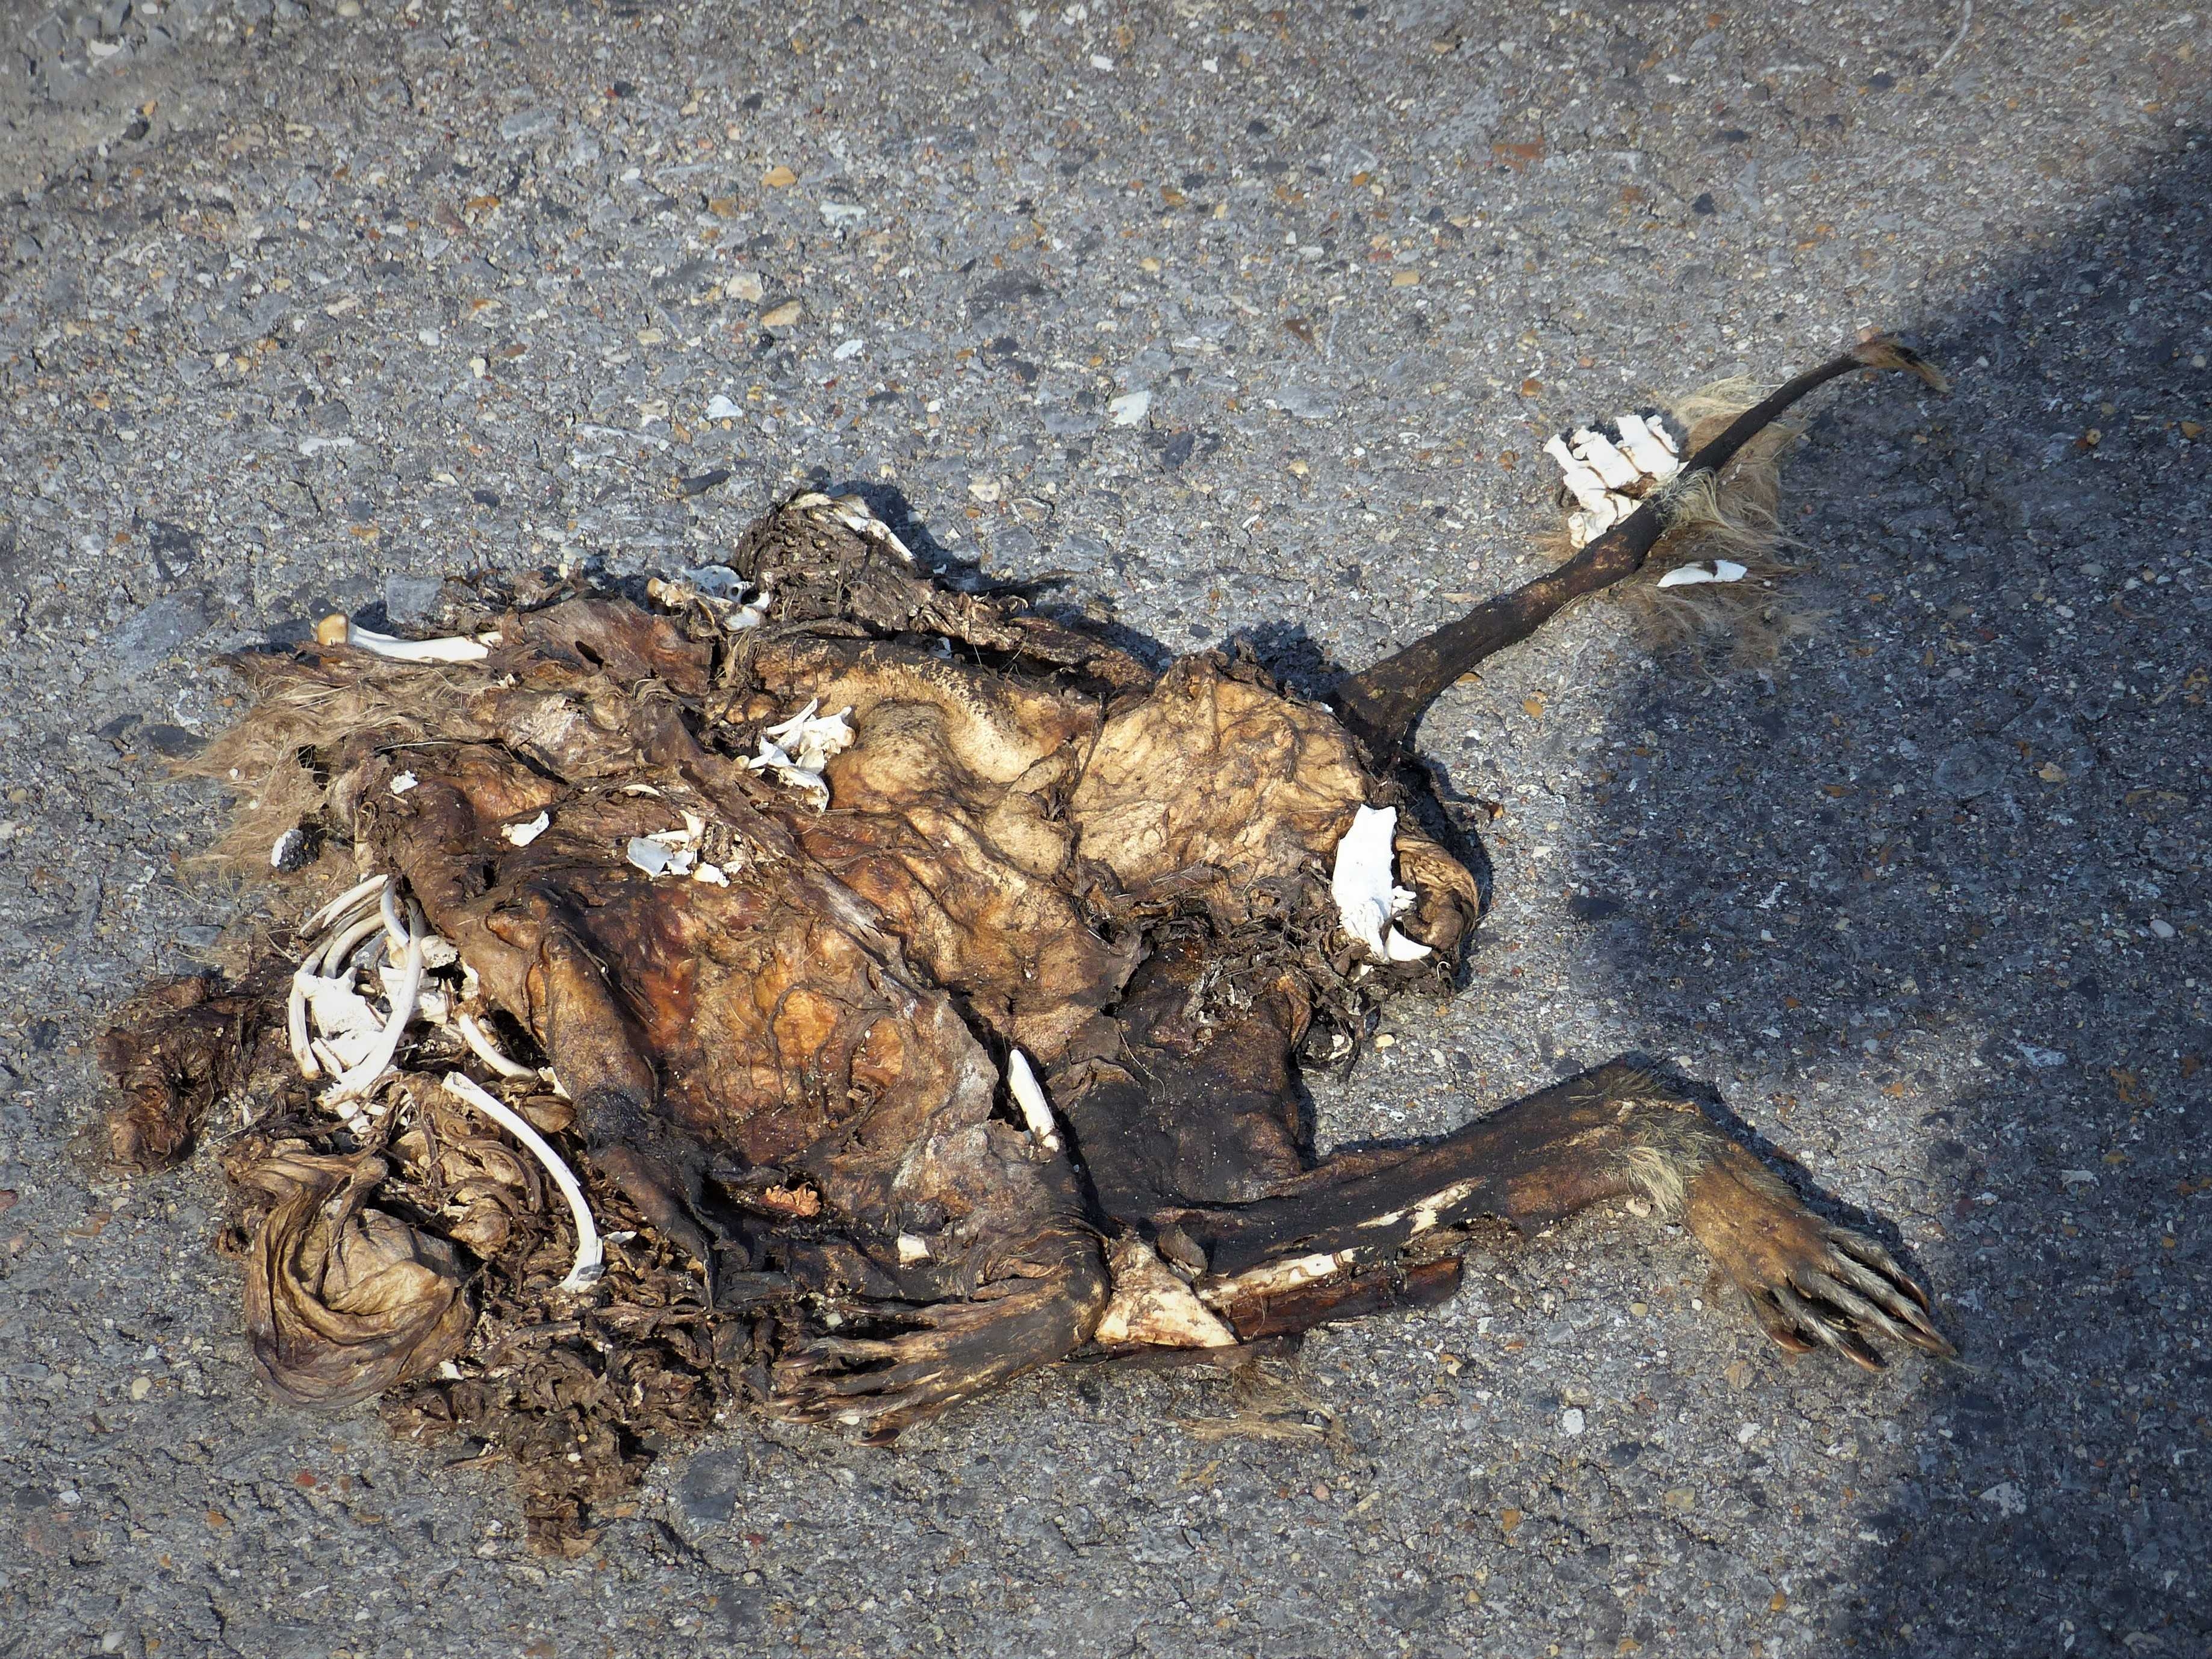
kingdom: Animalia
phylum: Chordata
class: Mammalia
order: Carnivora
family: Procyonidae
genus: Procyon
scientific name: Procyon lotor
